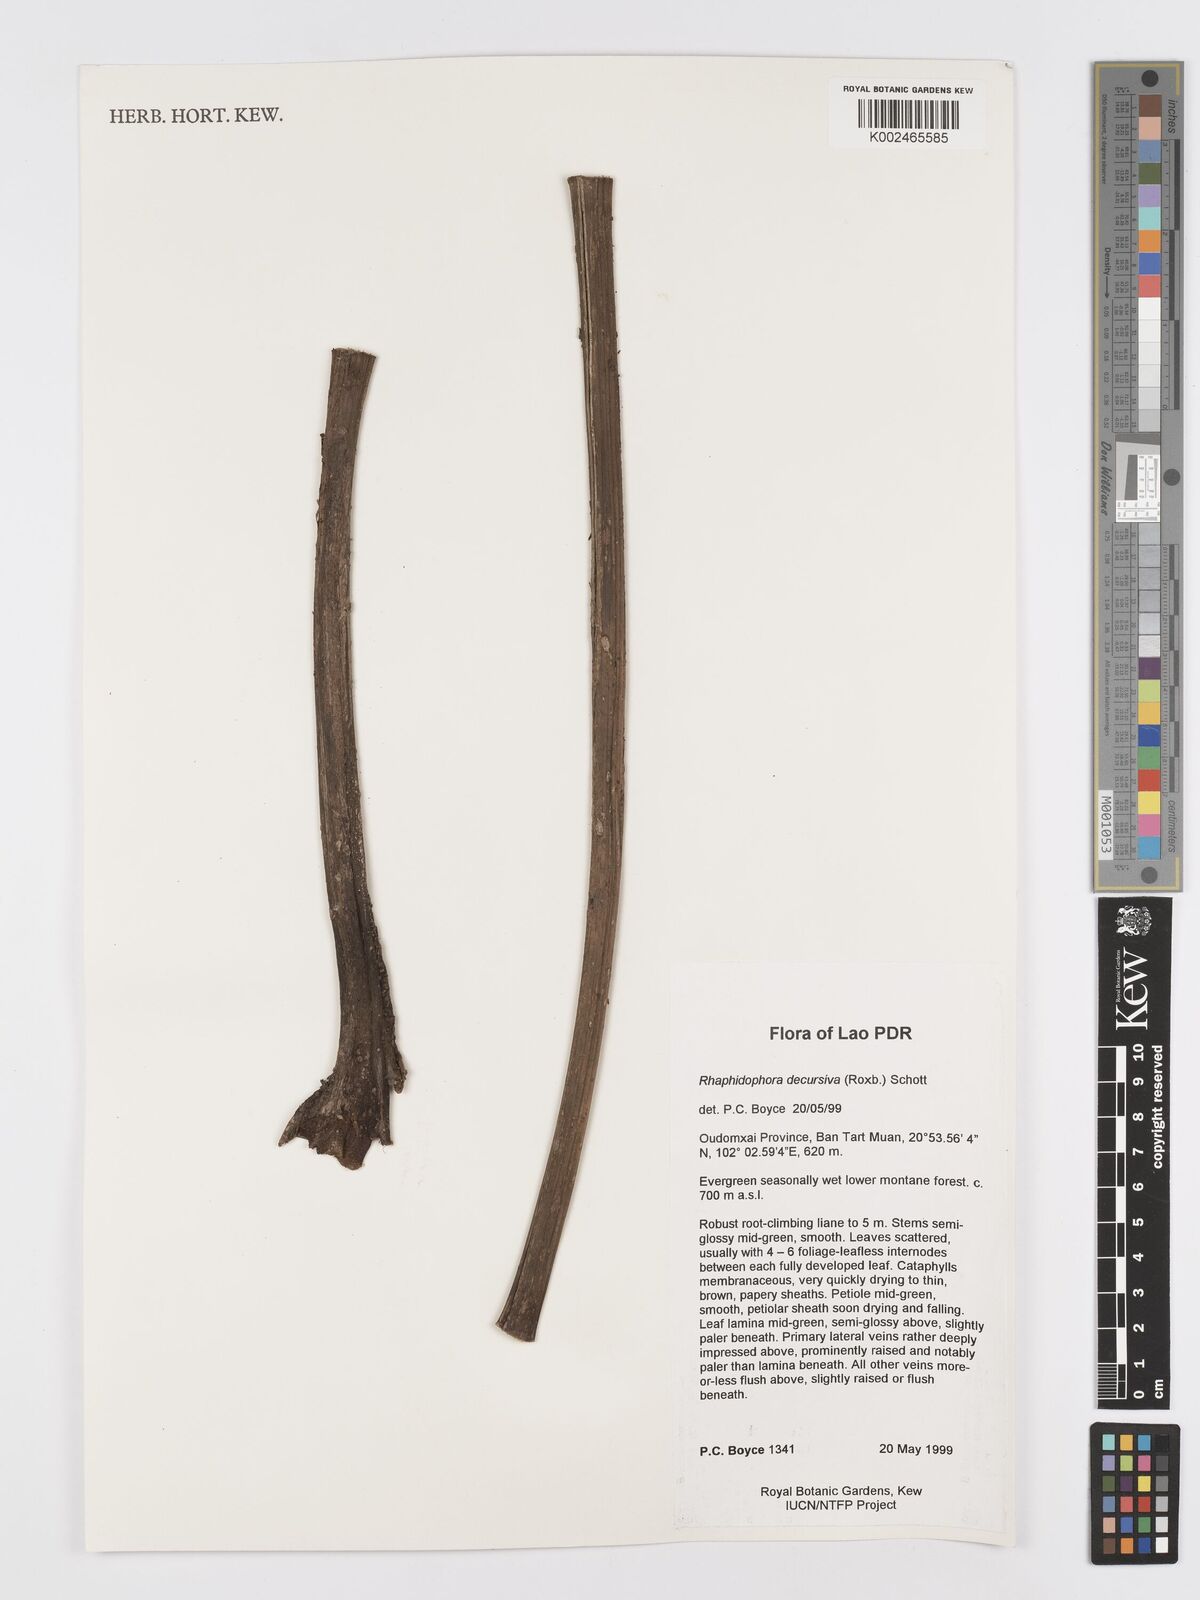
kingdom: Plantae
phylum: Tracheophyta
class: Liliopsida
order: Alismatales
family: Araceae
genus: Rhaphidophora
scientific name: Rhaphidophora decursiva
